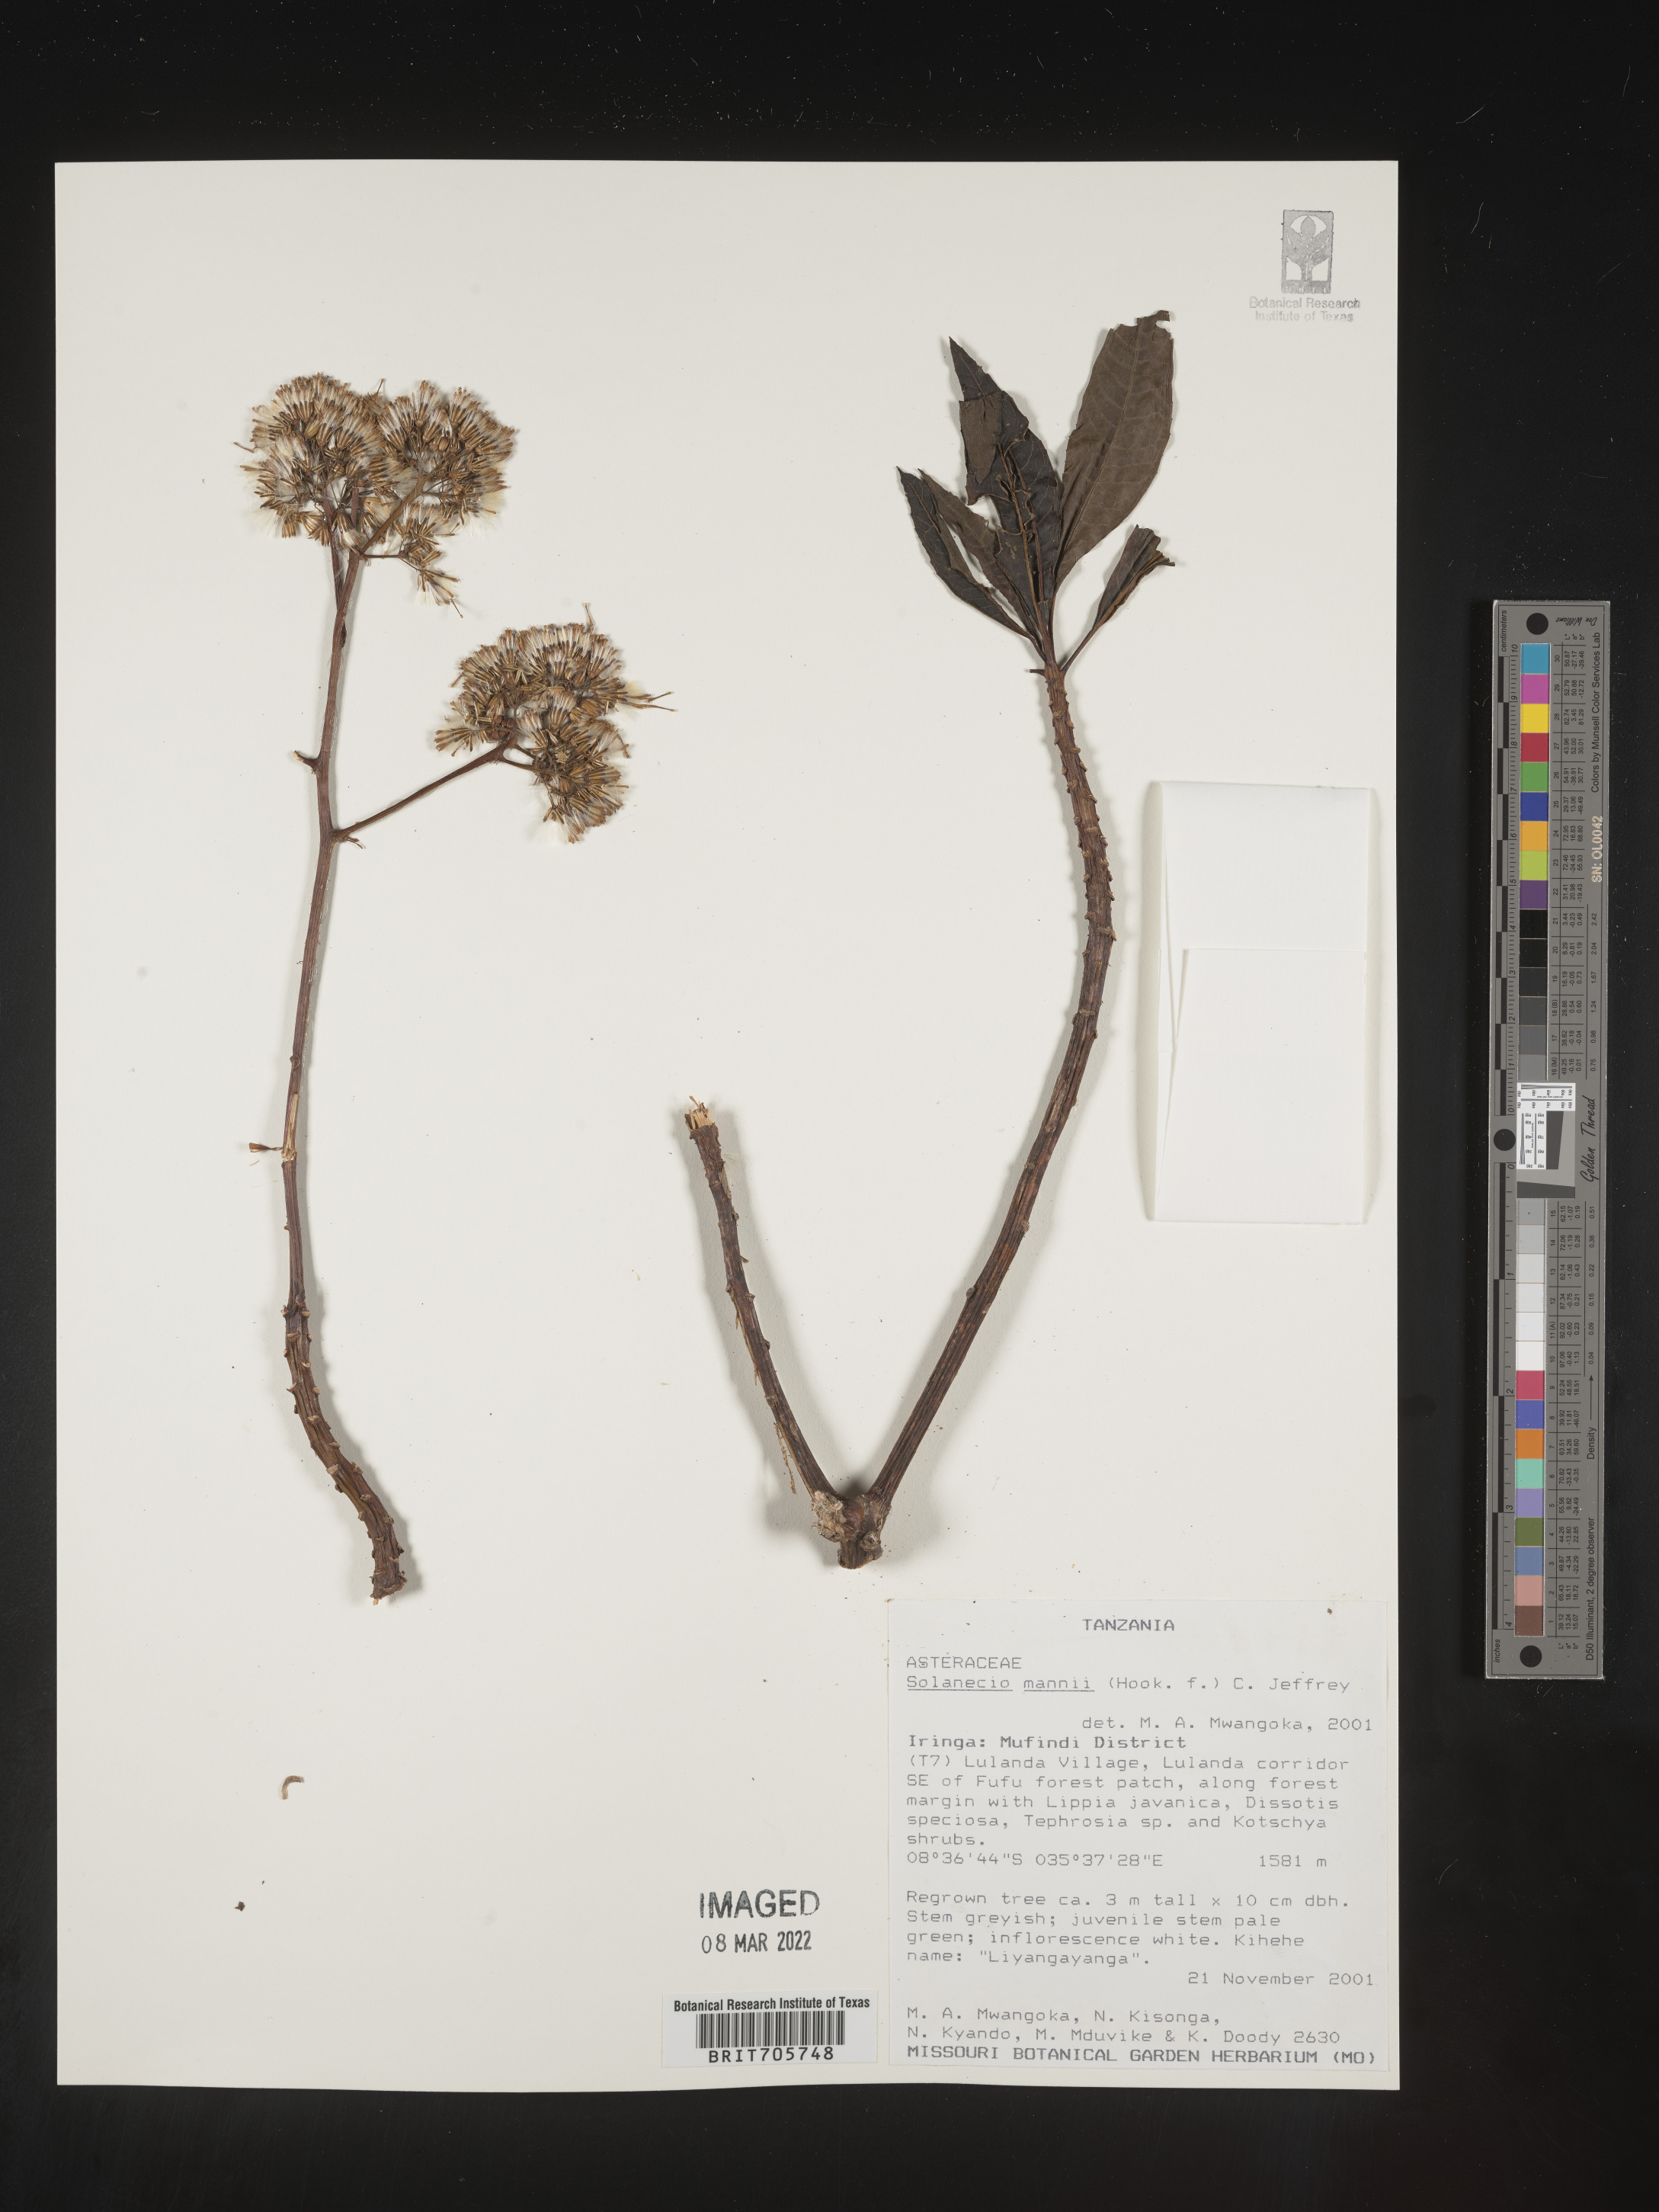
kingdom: Plantae
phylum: Tracheophyta
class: Magnoliopsida
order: Asterales
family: Asteraceae
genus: Solanecio
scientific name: Solanecio
